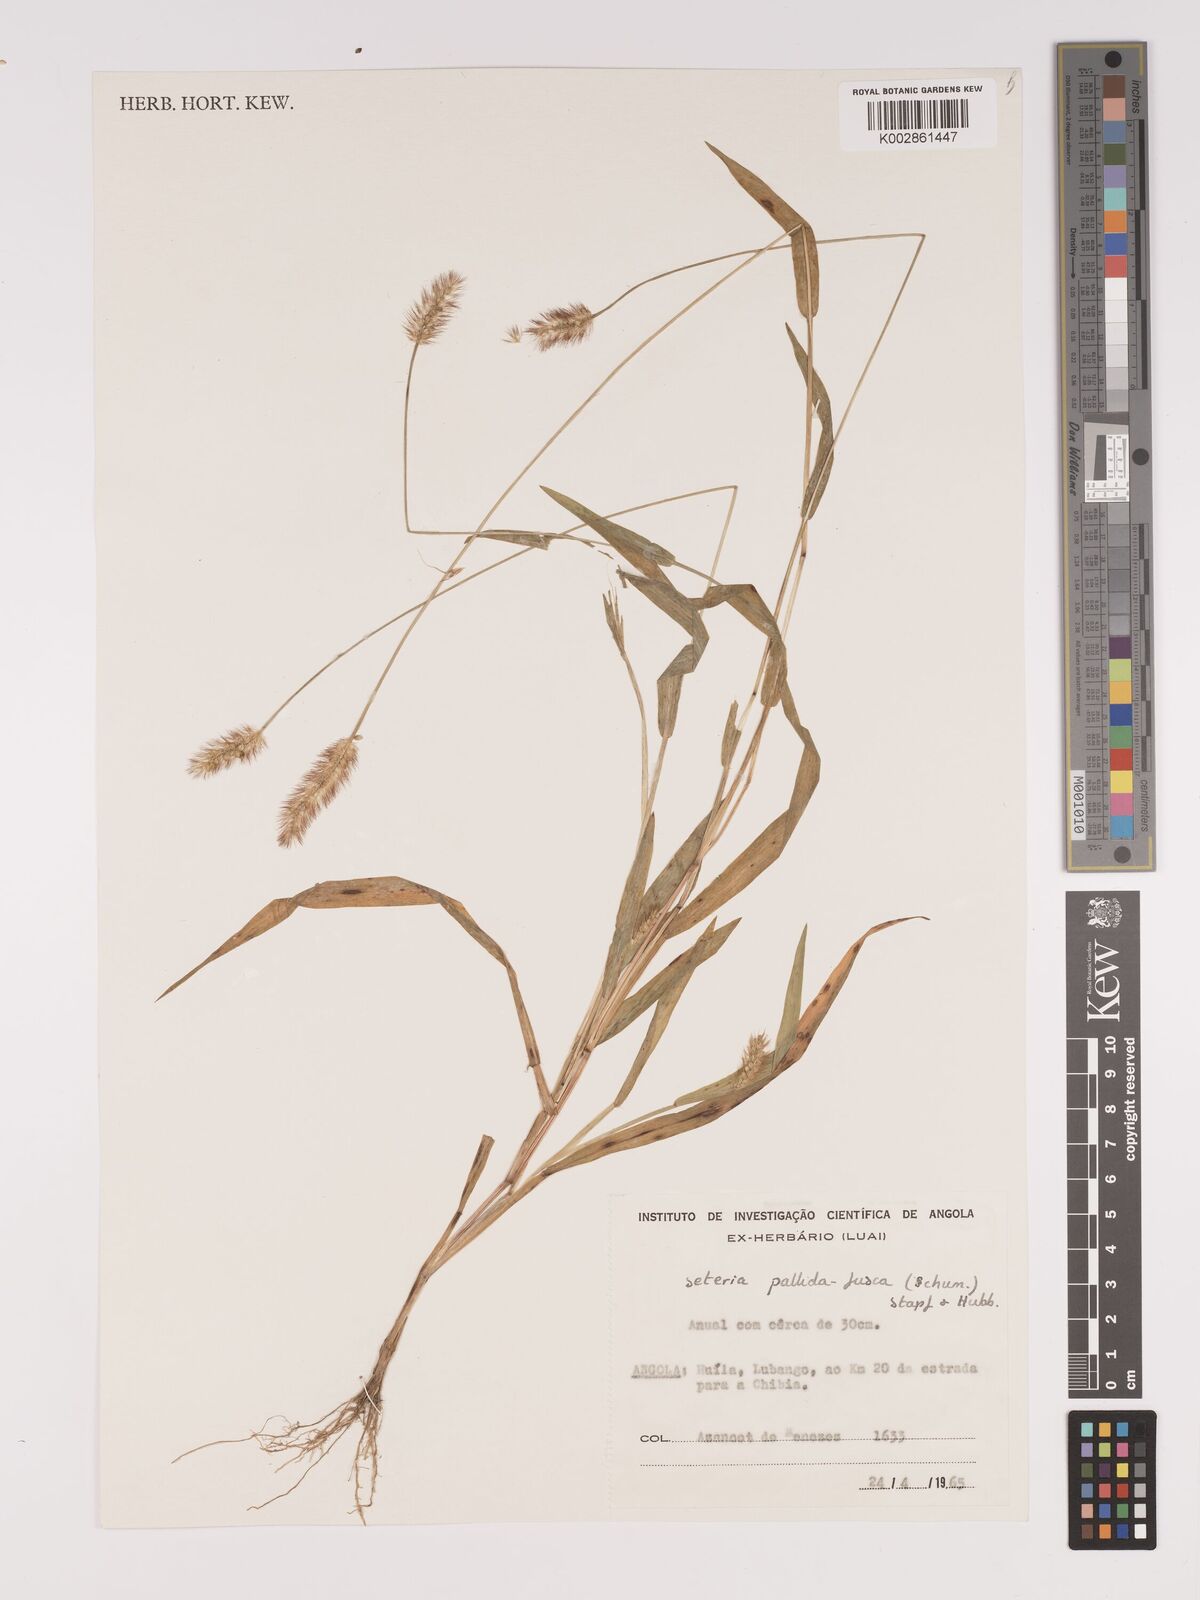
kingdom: Plantae
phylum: Tracheophyta
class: Liliopsida
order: Poales
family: Poaceae
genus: Setaria
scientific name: Setaria pumila
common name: Yellow bristle-grass
